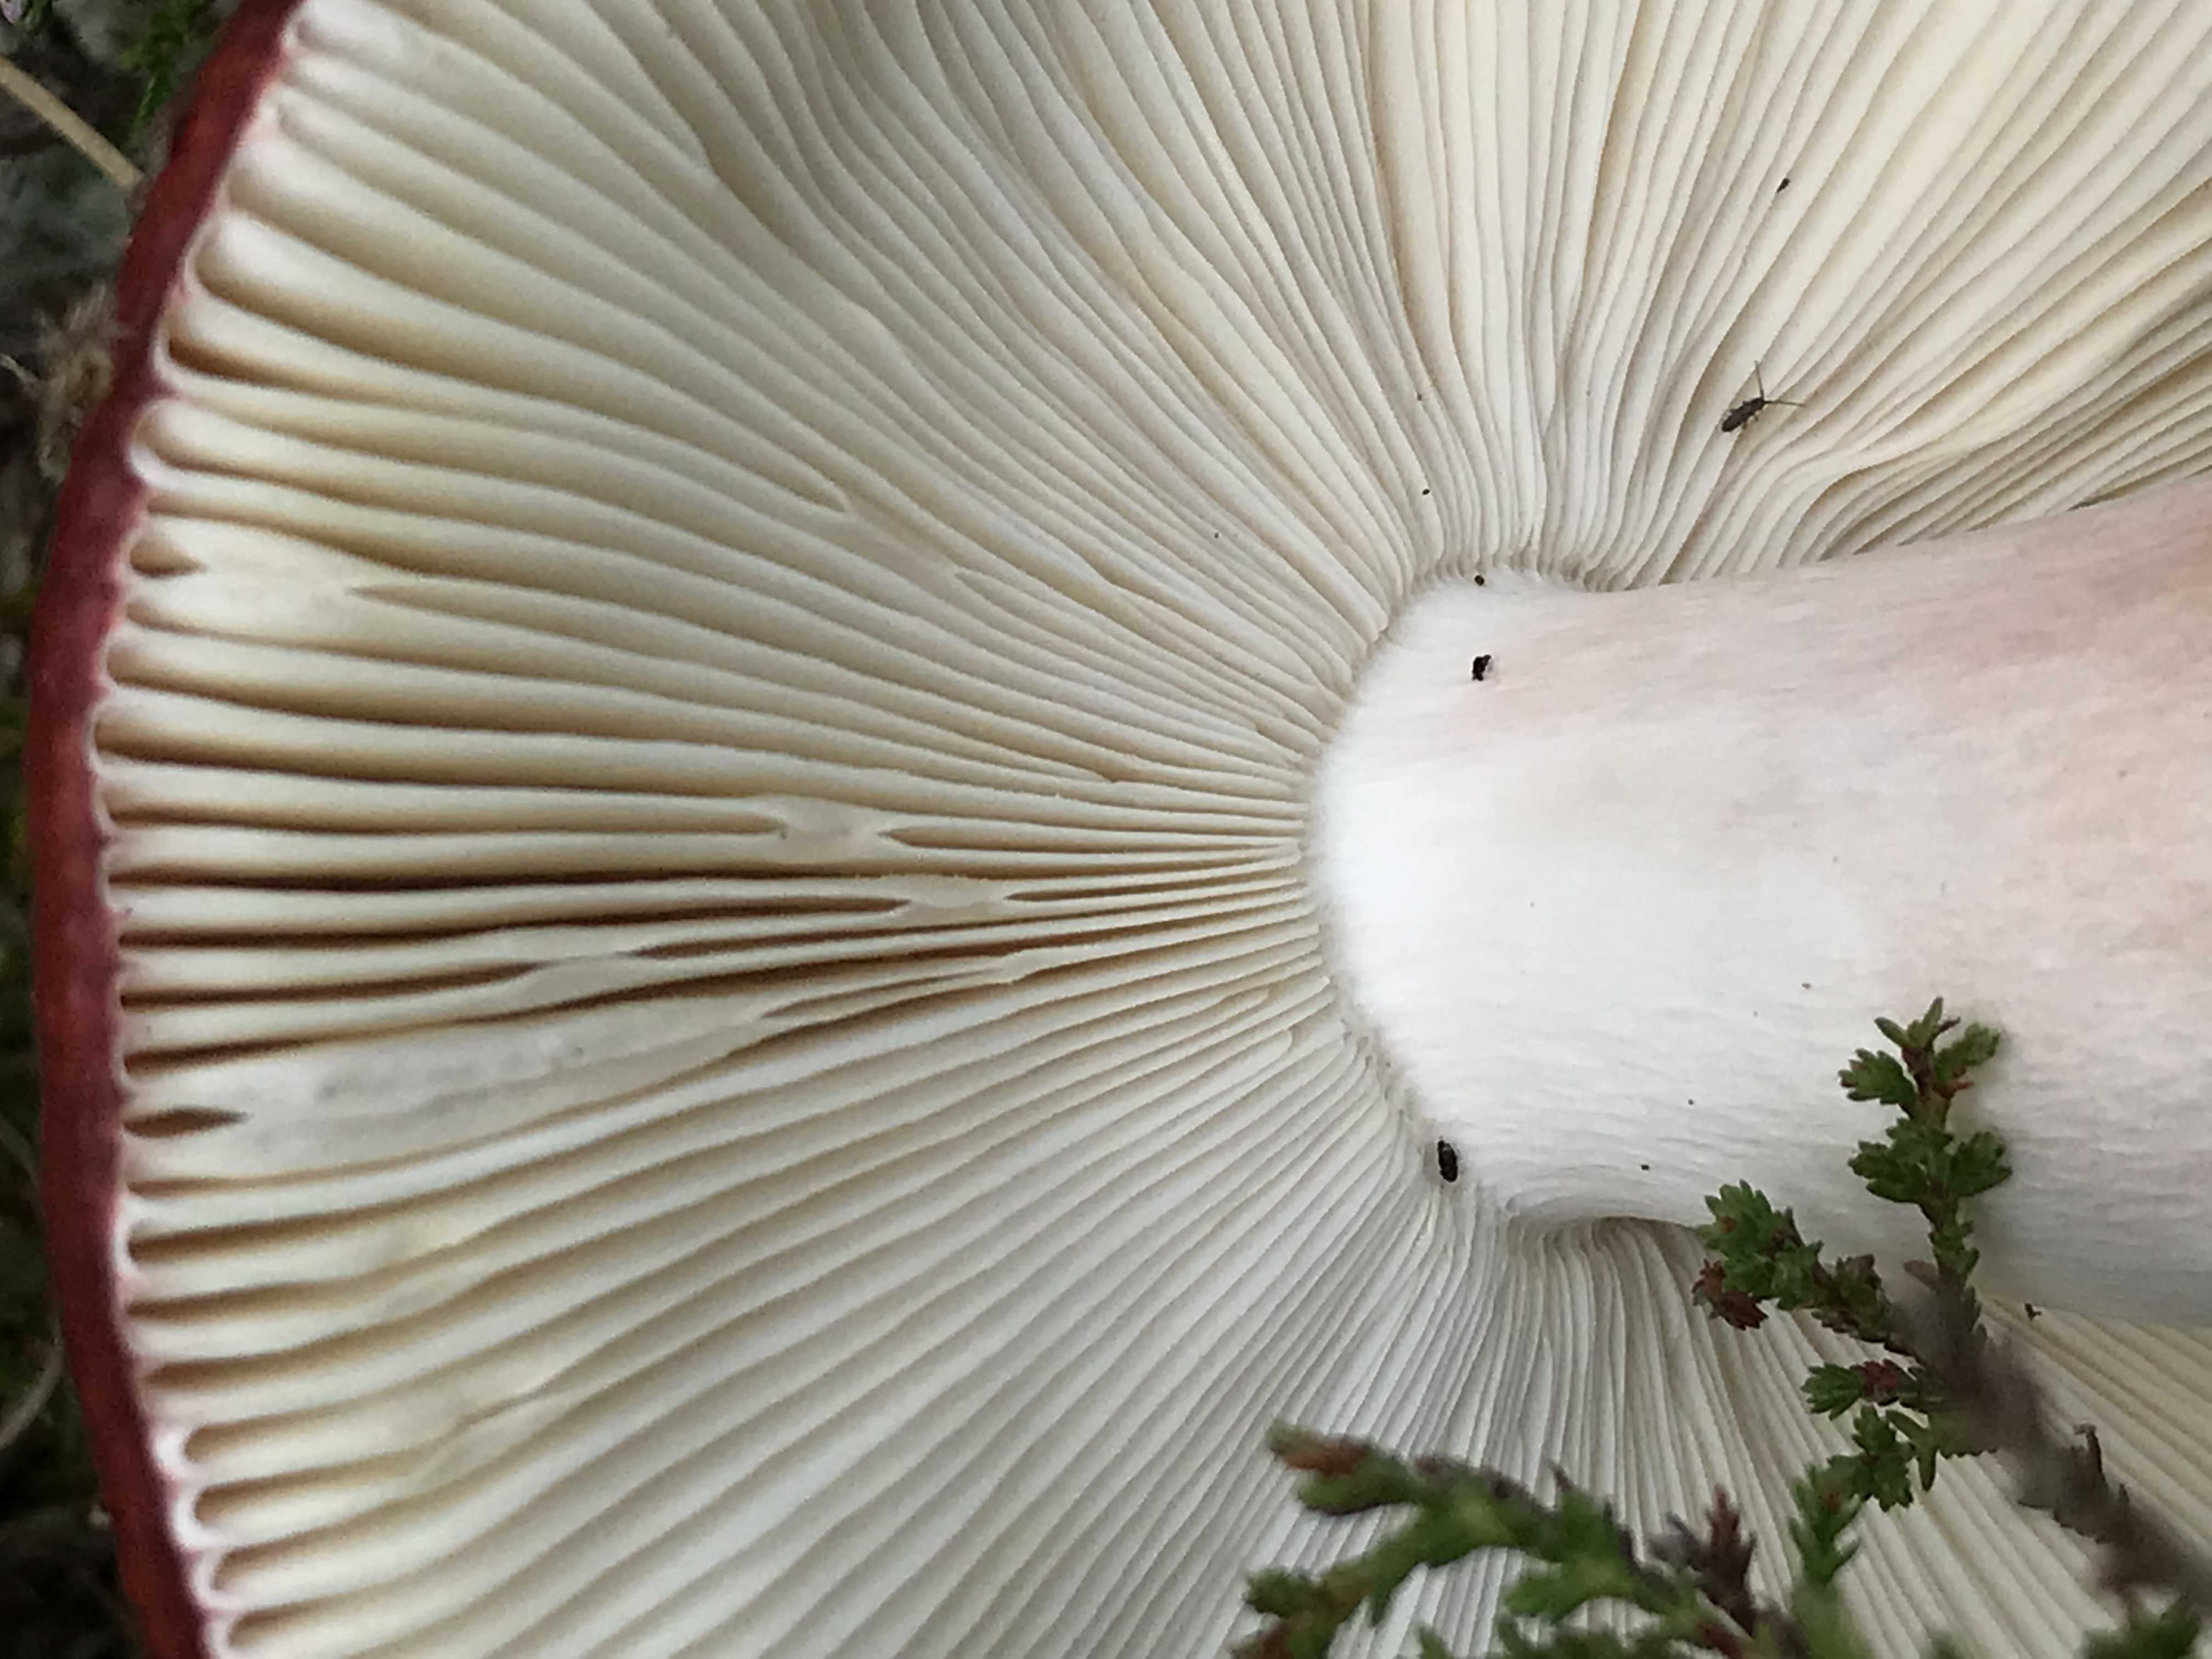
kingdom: Fungi
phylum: Basidiomycota
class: Agaricomycetes
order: Russulales
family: Russulaceae
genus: Russula
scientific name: Russula paludosa
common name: prægtig skørhat
